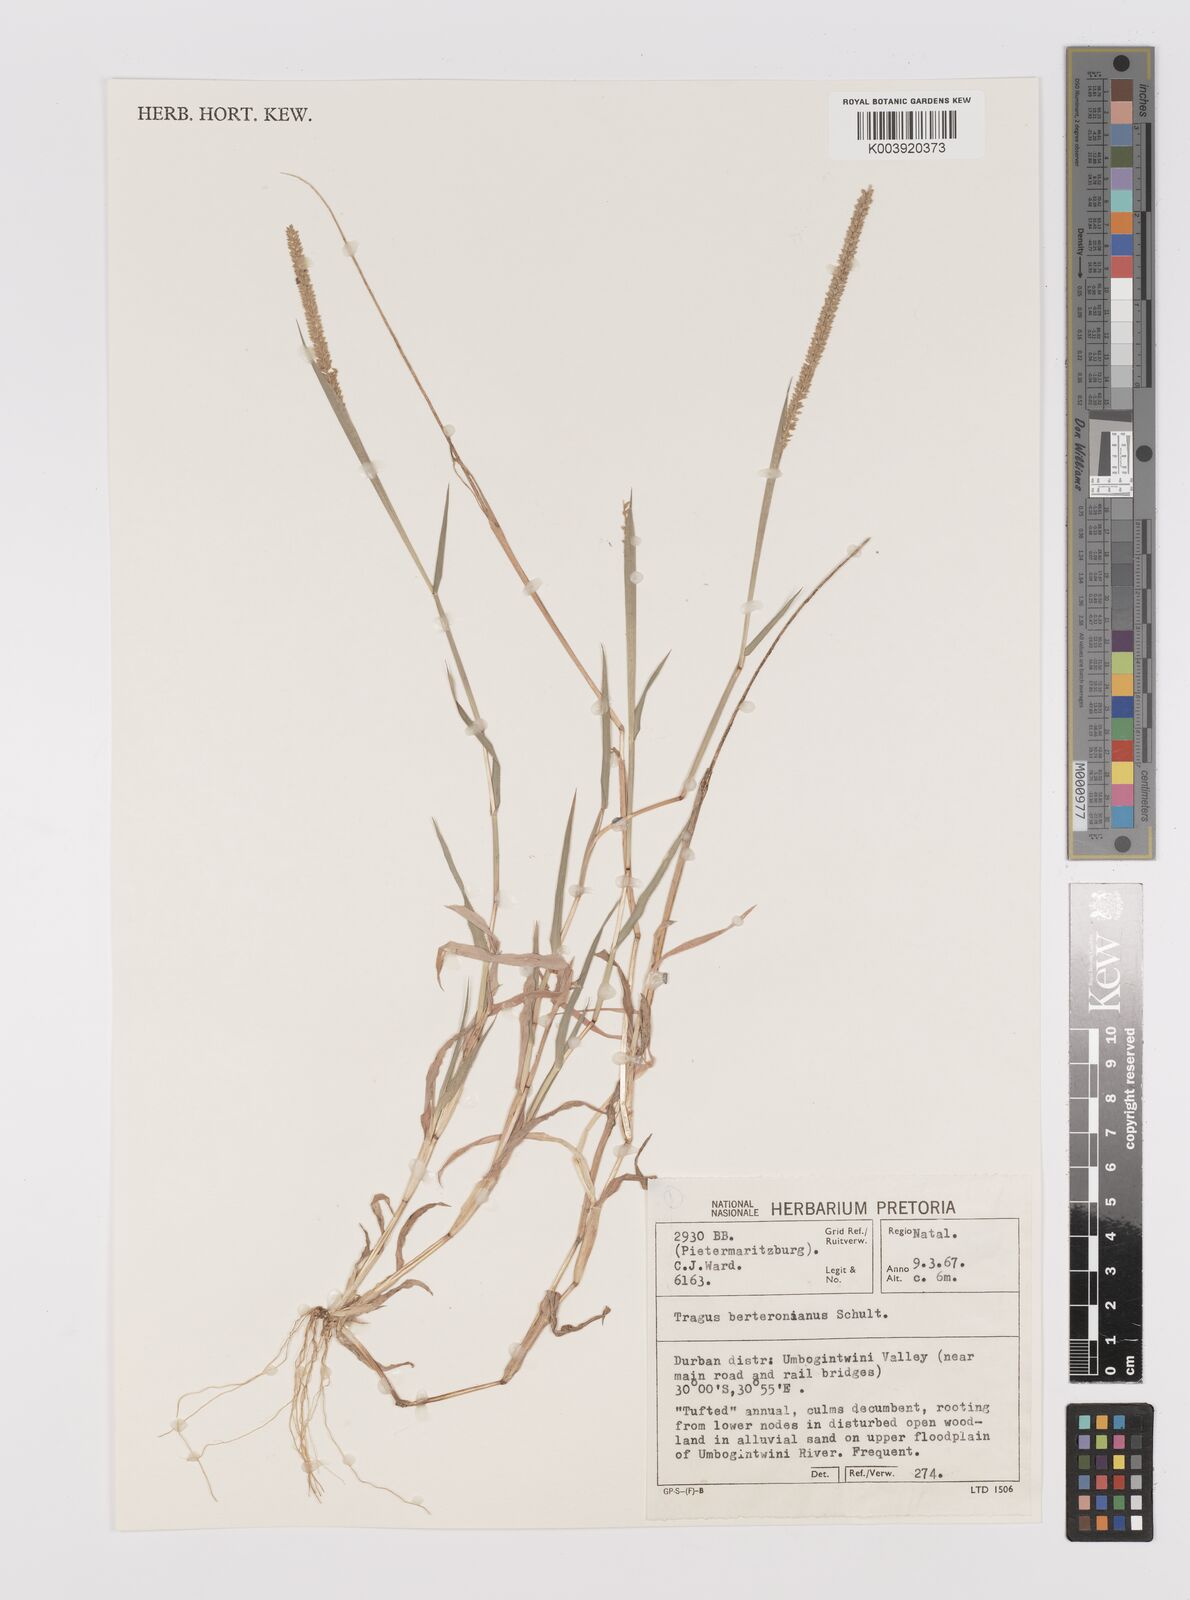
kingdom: Plantae
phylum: Tracheophyta
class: Liliopsida
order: Poales
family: Poaceae
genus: Tragus
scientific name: Tragus berteronianus
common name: African bur-grass
